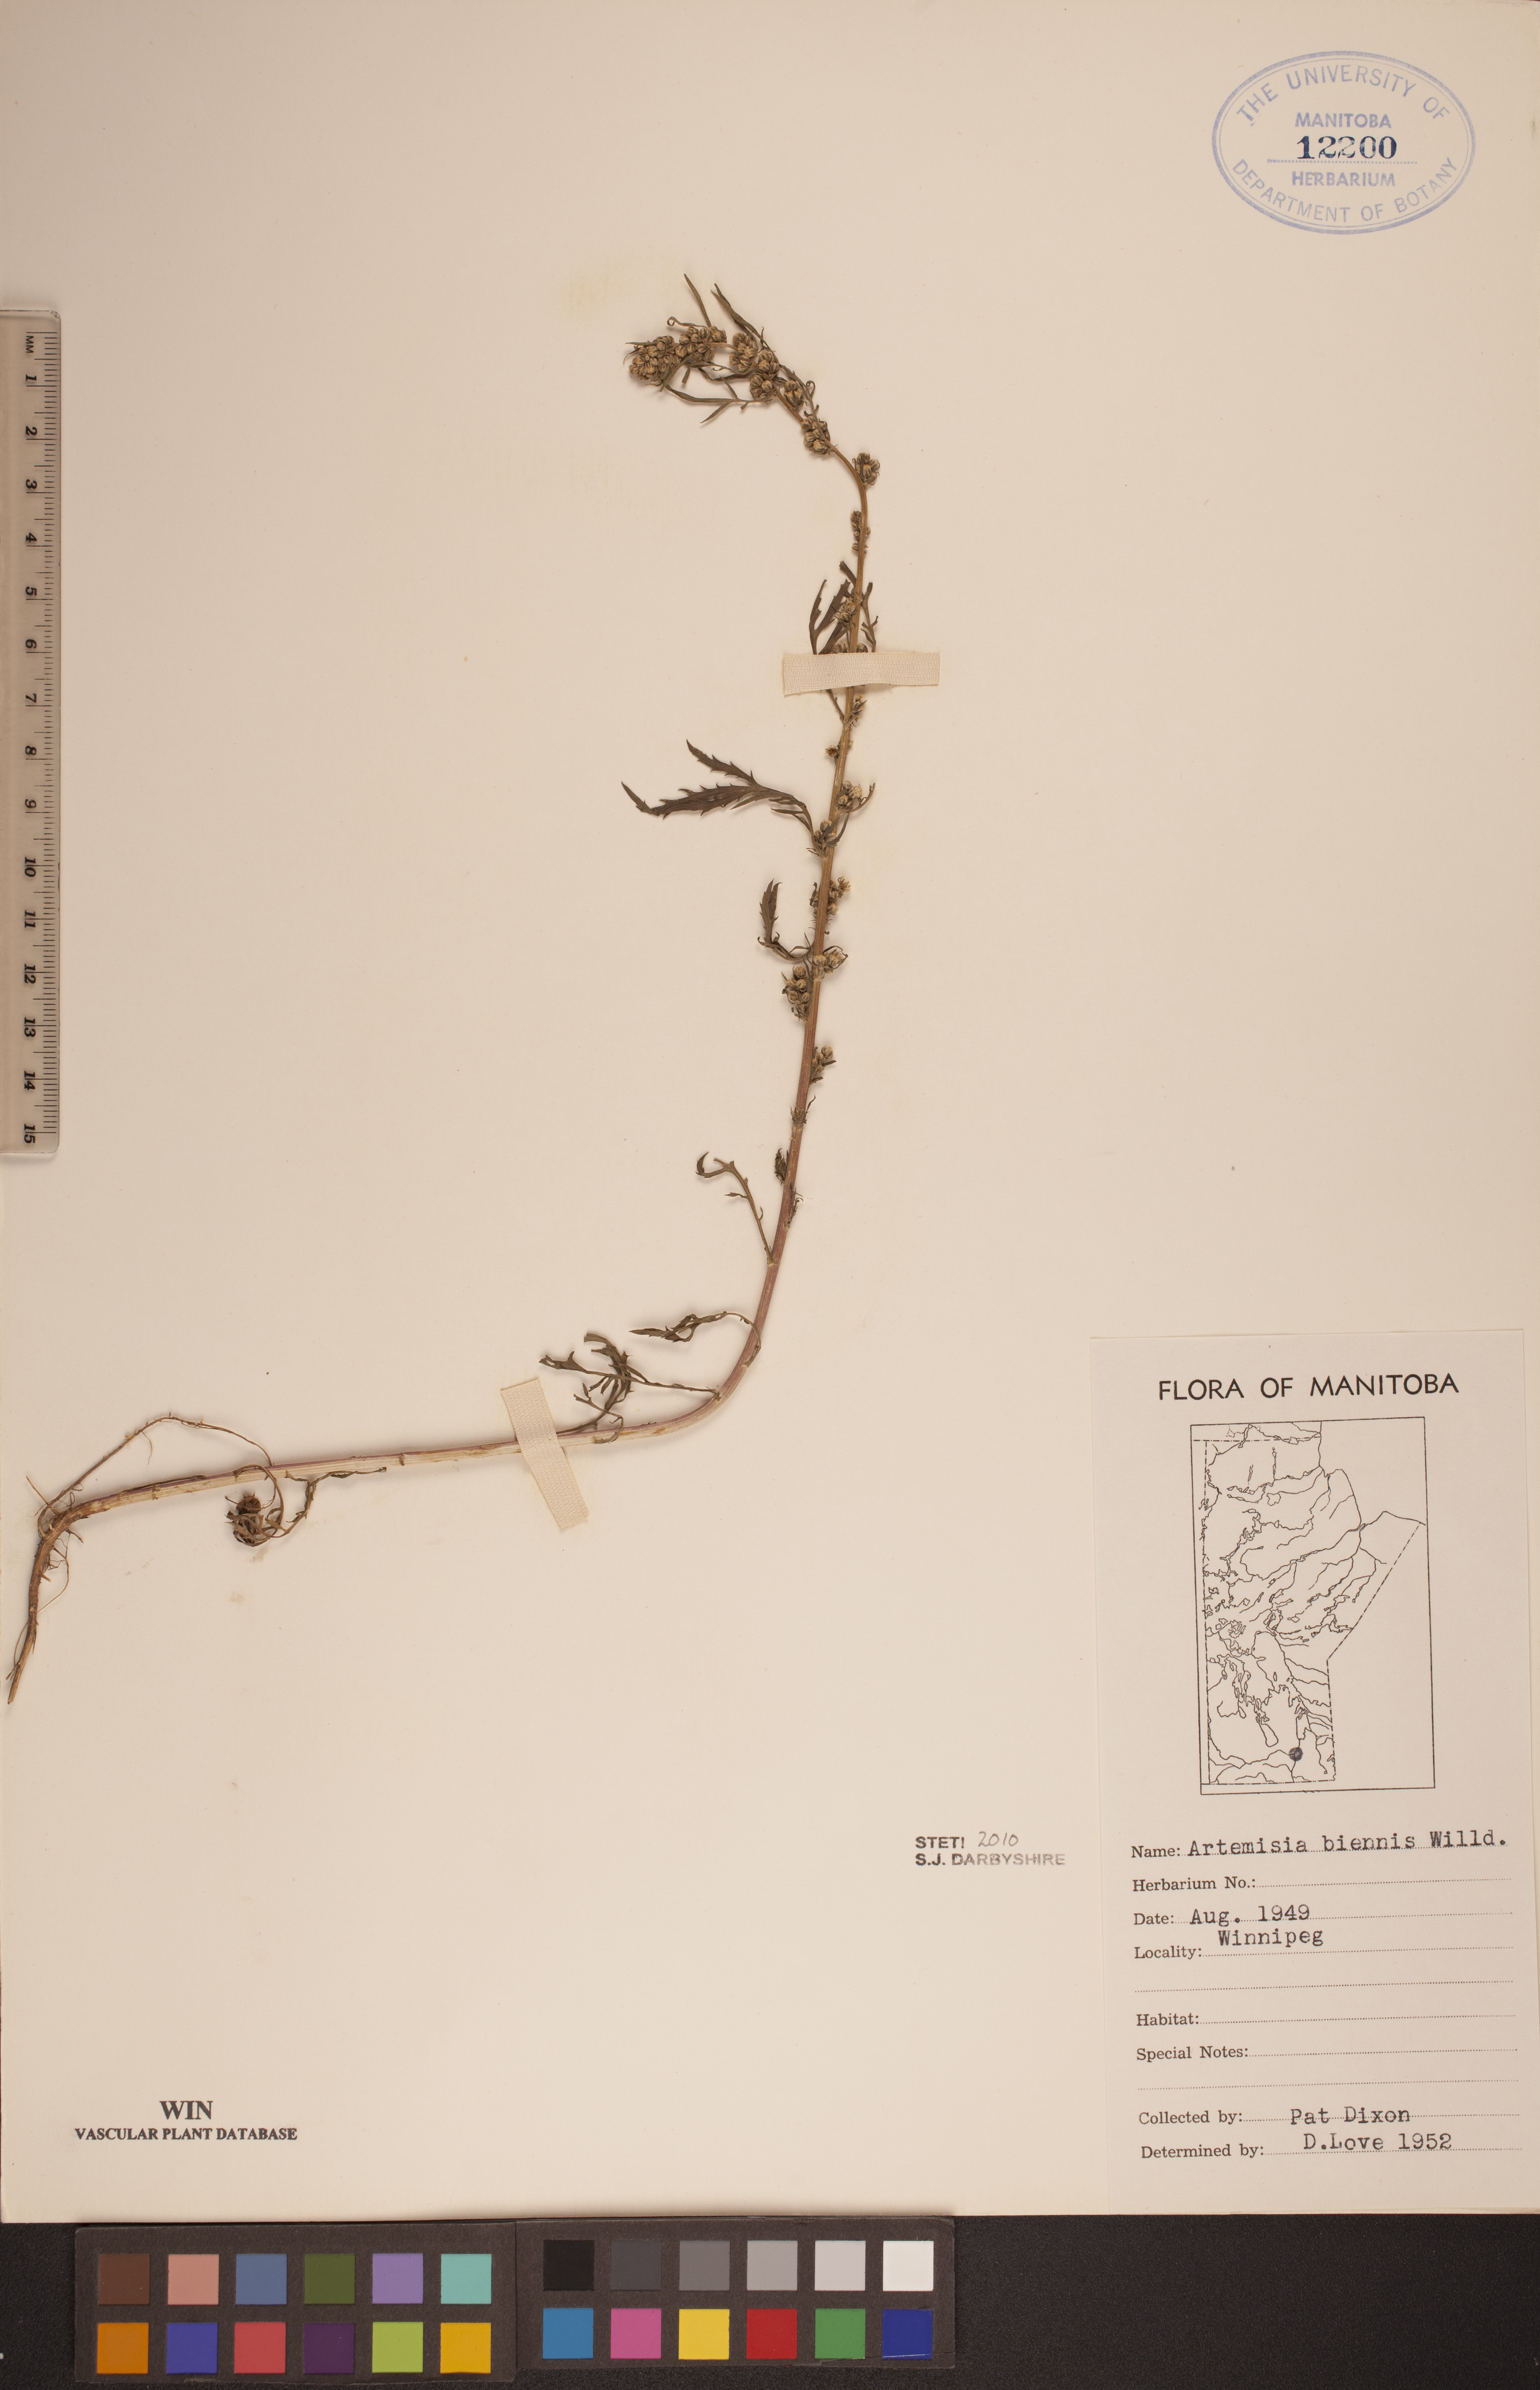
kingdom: Plantae
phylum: Tracheophyta
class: Magnoliopsida
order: Asterales
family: Asteraceae
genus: Artemisia
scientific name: Artemisia biennis
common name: Biennial wormwood
